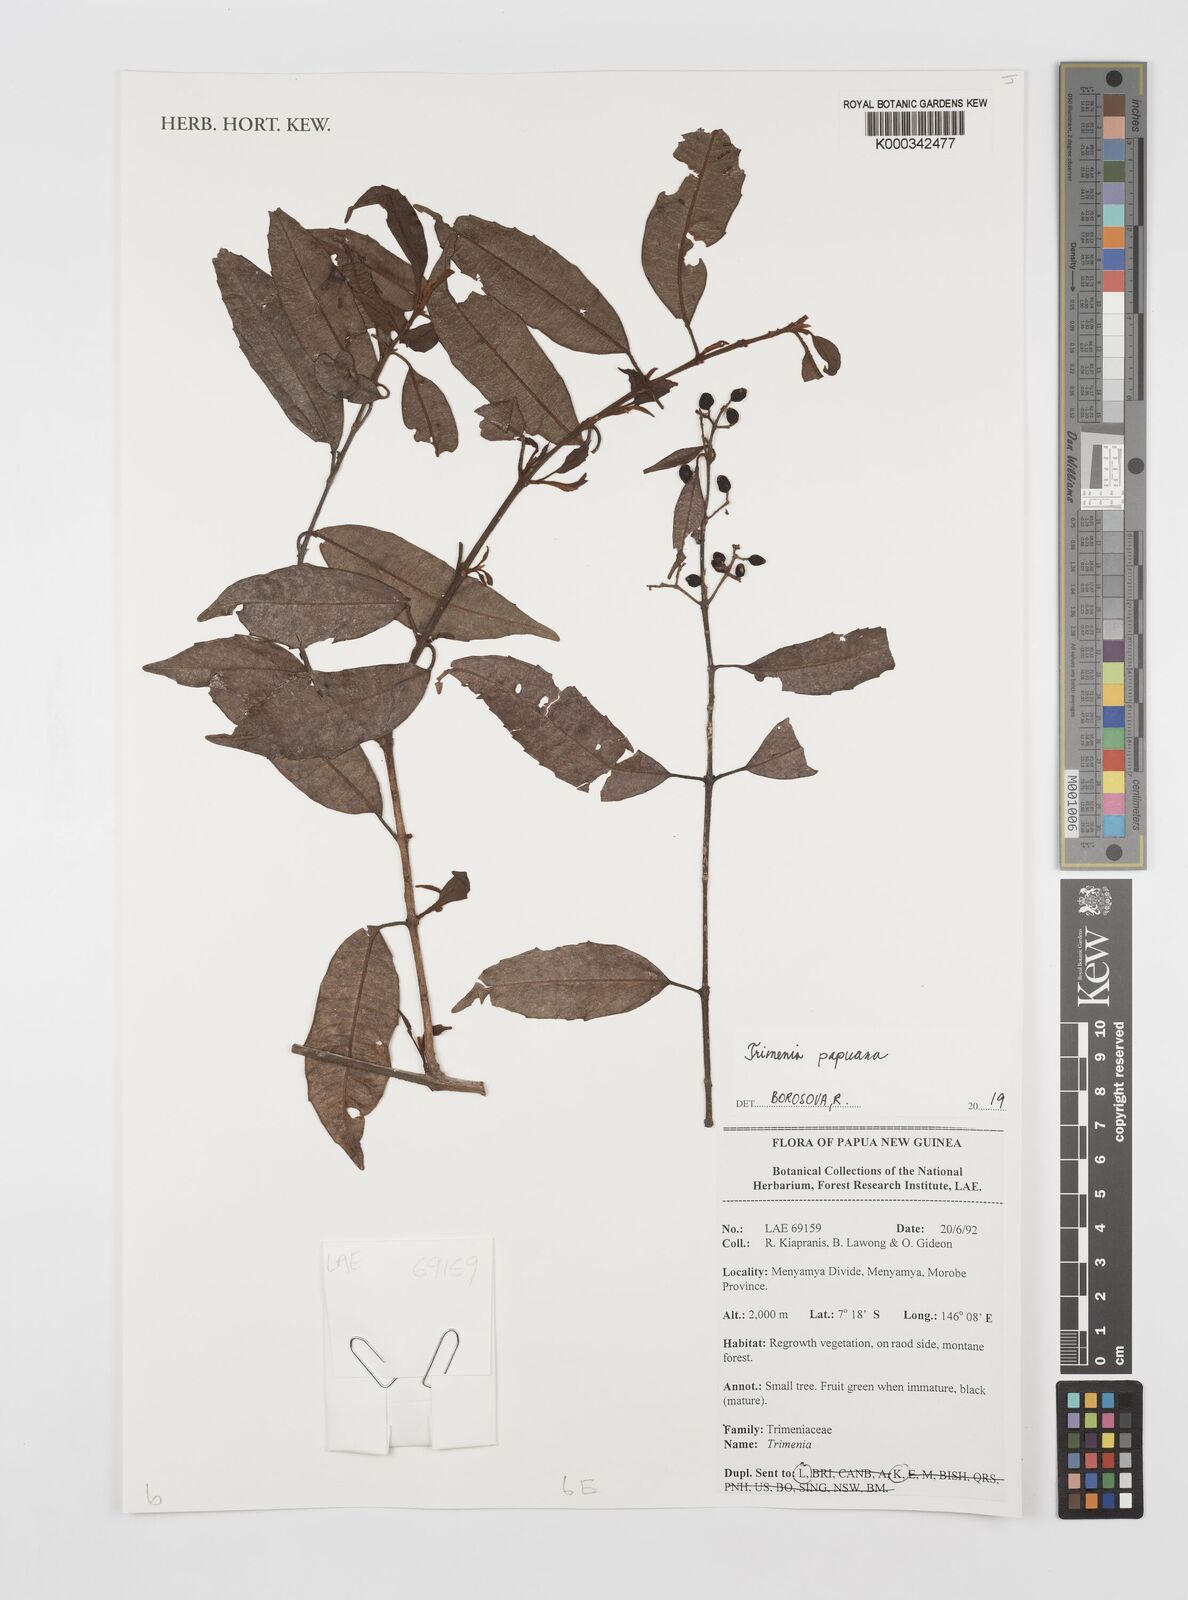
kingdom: Plantae
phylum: Tracheophyta
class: Magnoliopsida
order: Austrobaileyales
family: Trimeniaceae
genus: Trimenia
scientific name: Trimenia papuana
